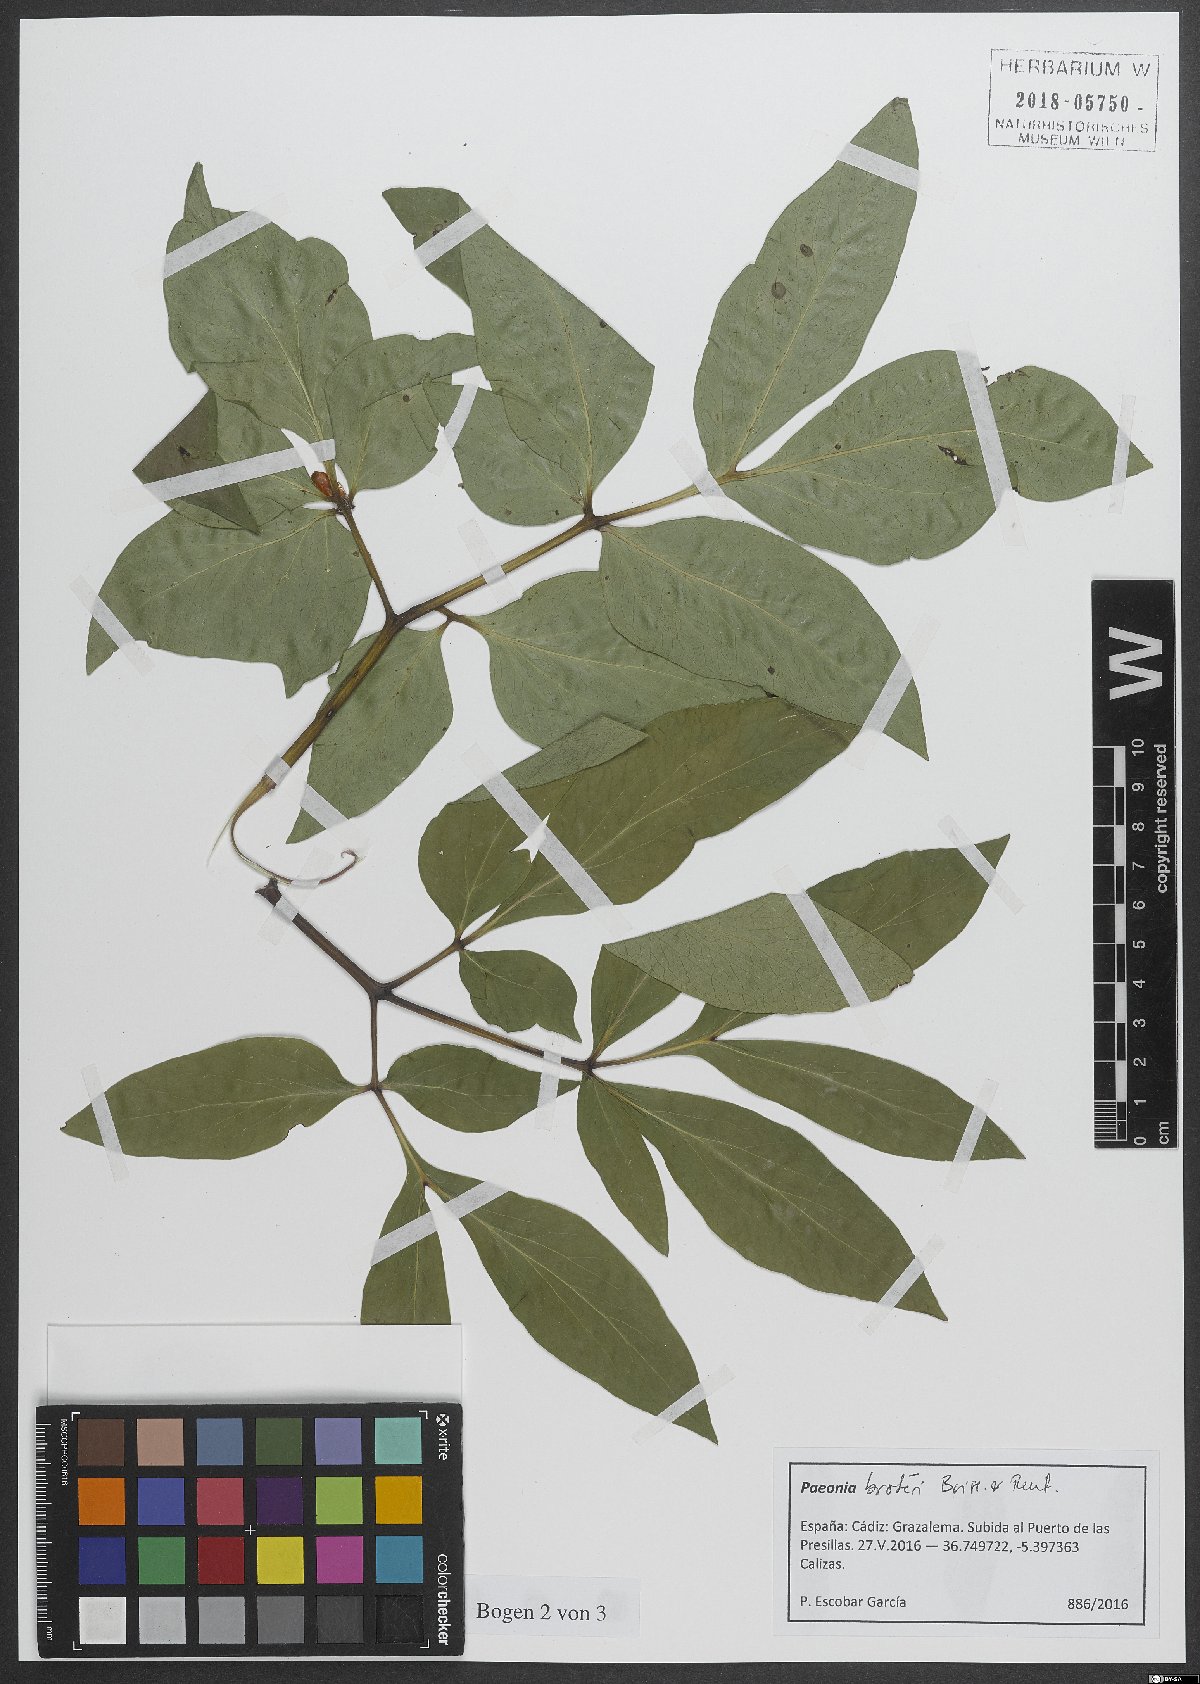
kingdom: Plantae
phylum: Tracheophyta
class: Magnoliopsida
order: Saxifragales
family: Paeoniaceae
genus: Paeonia
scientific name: Paeonia broteroi
